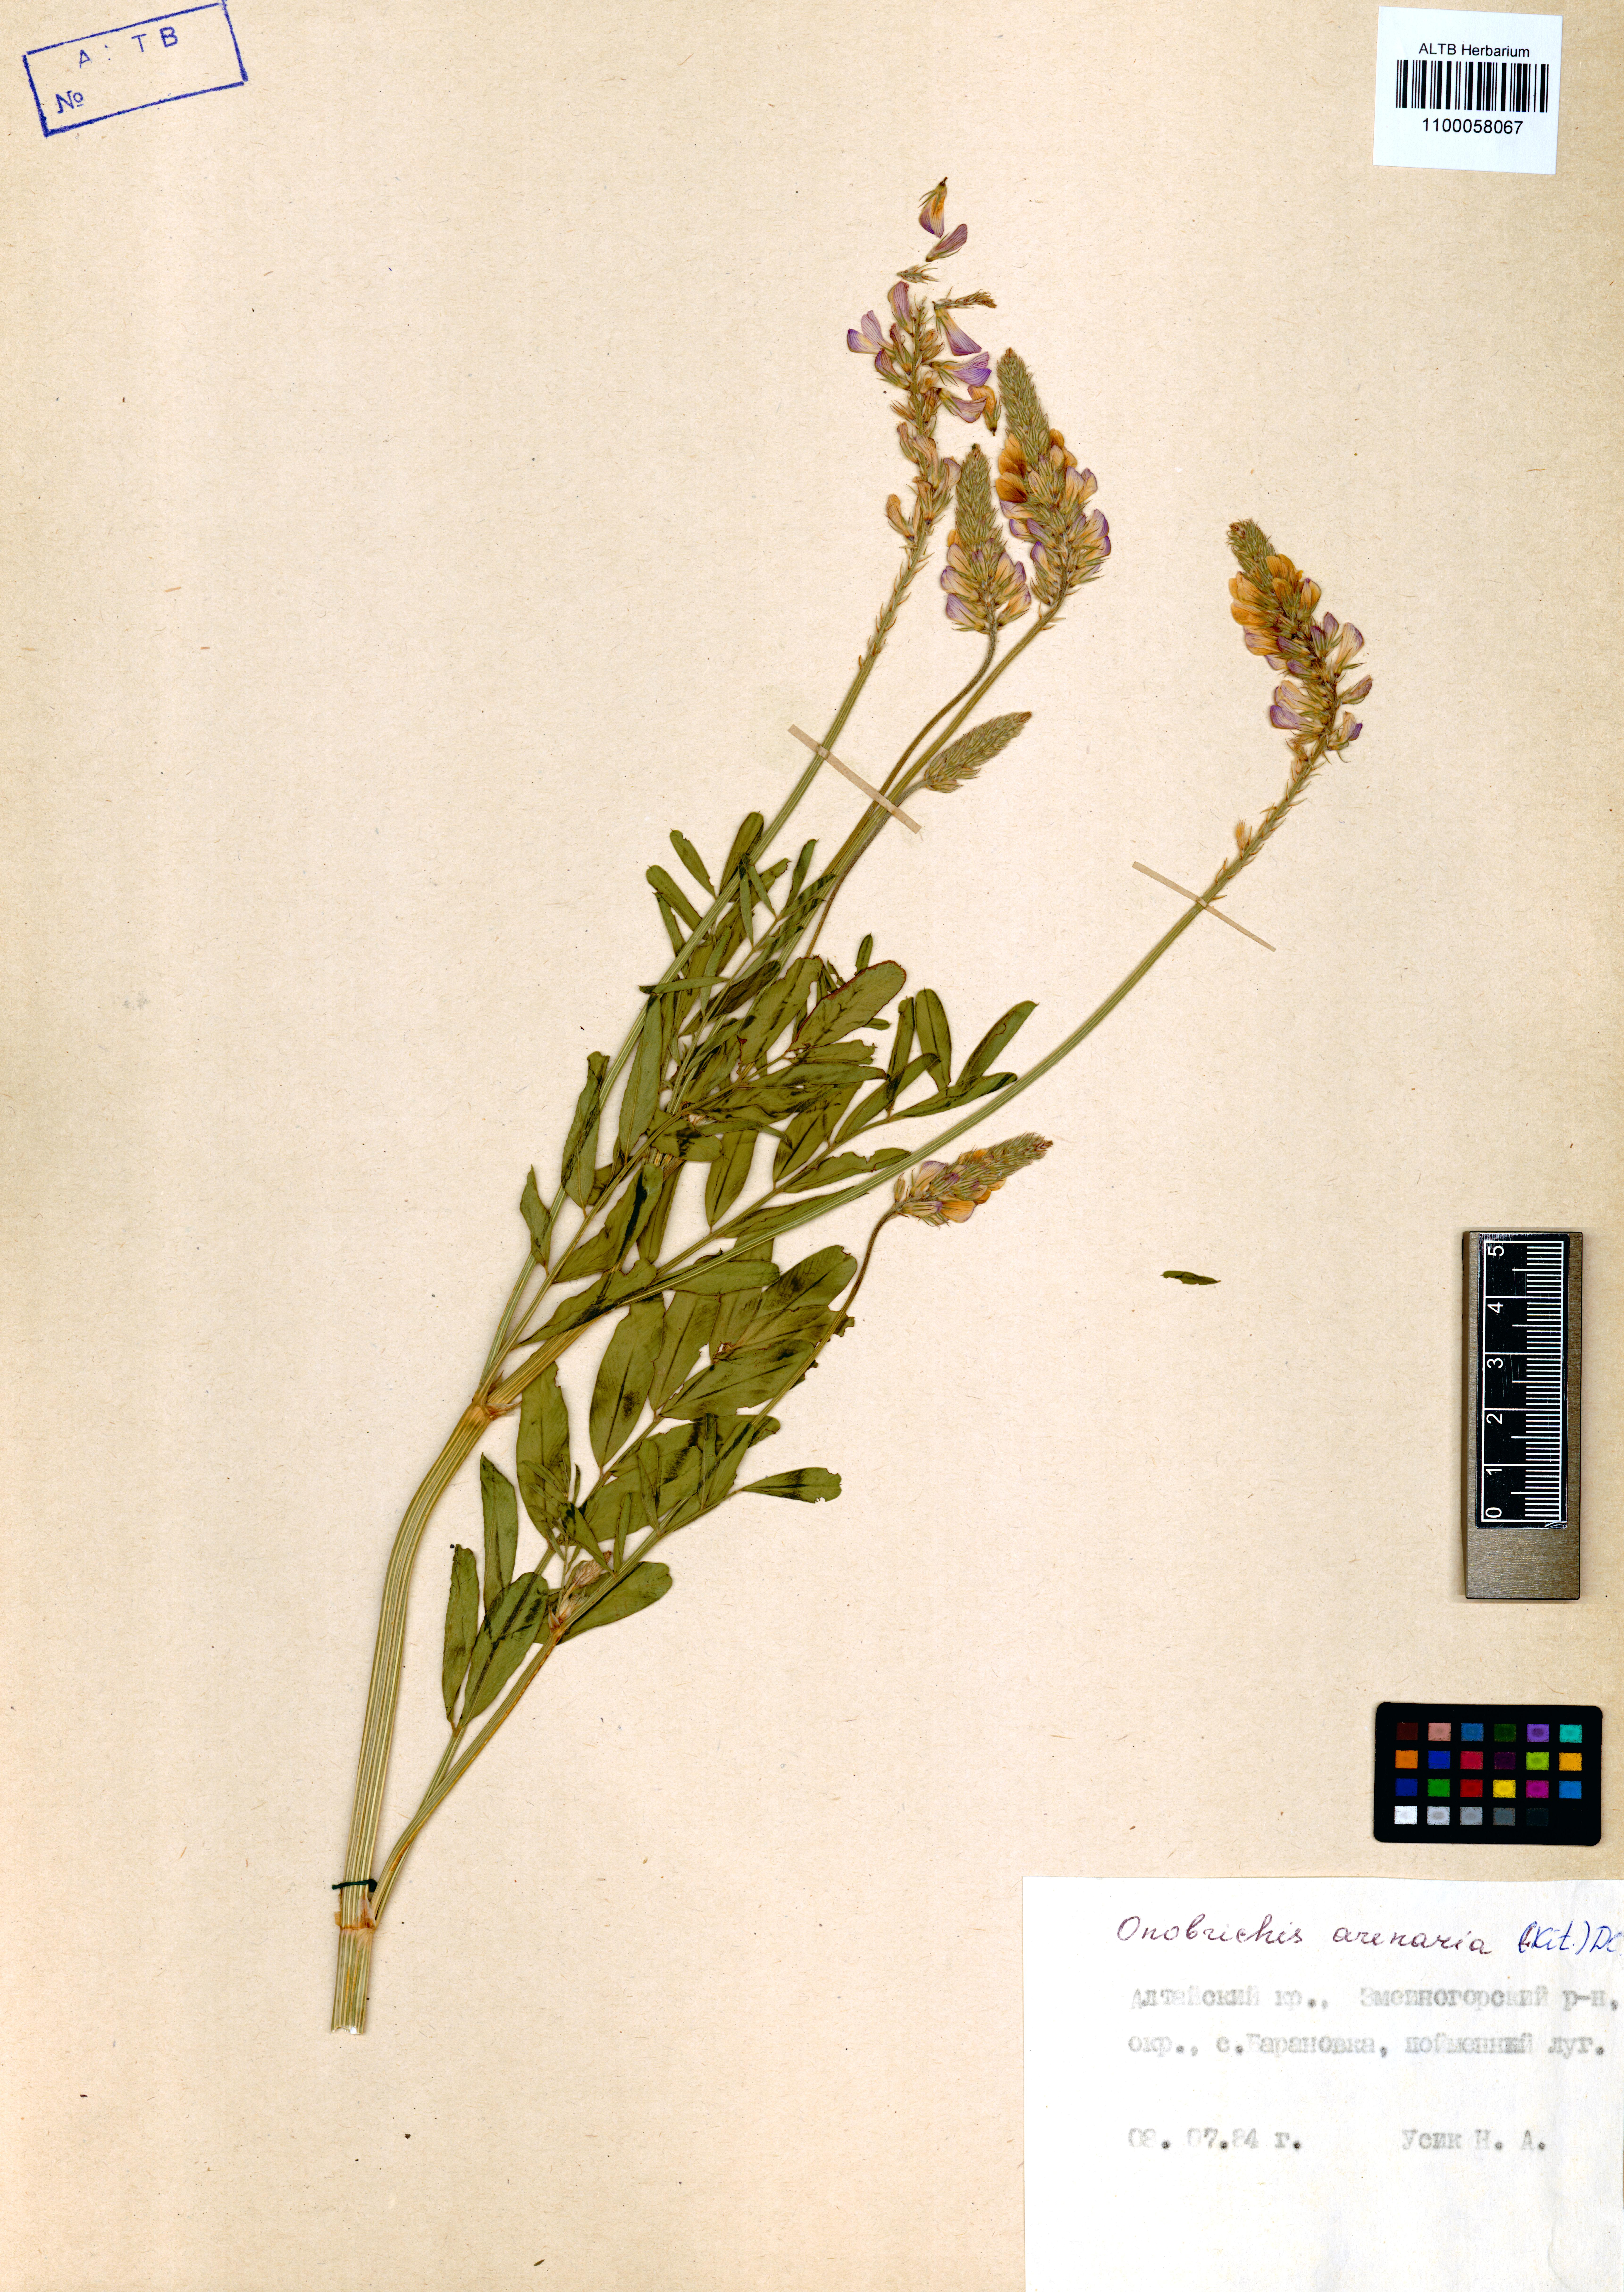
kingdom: Plantae
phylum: Tracheophyta
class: Magnoliopsida
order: Fabales
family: Fabaceae
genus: Onobrychis
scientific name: Onobrychis arenaria
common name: Sand esparcet
